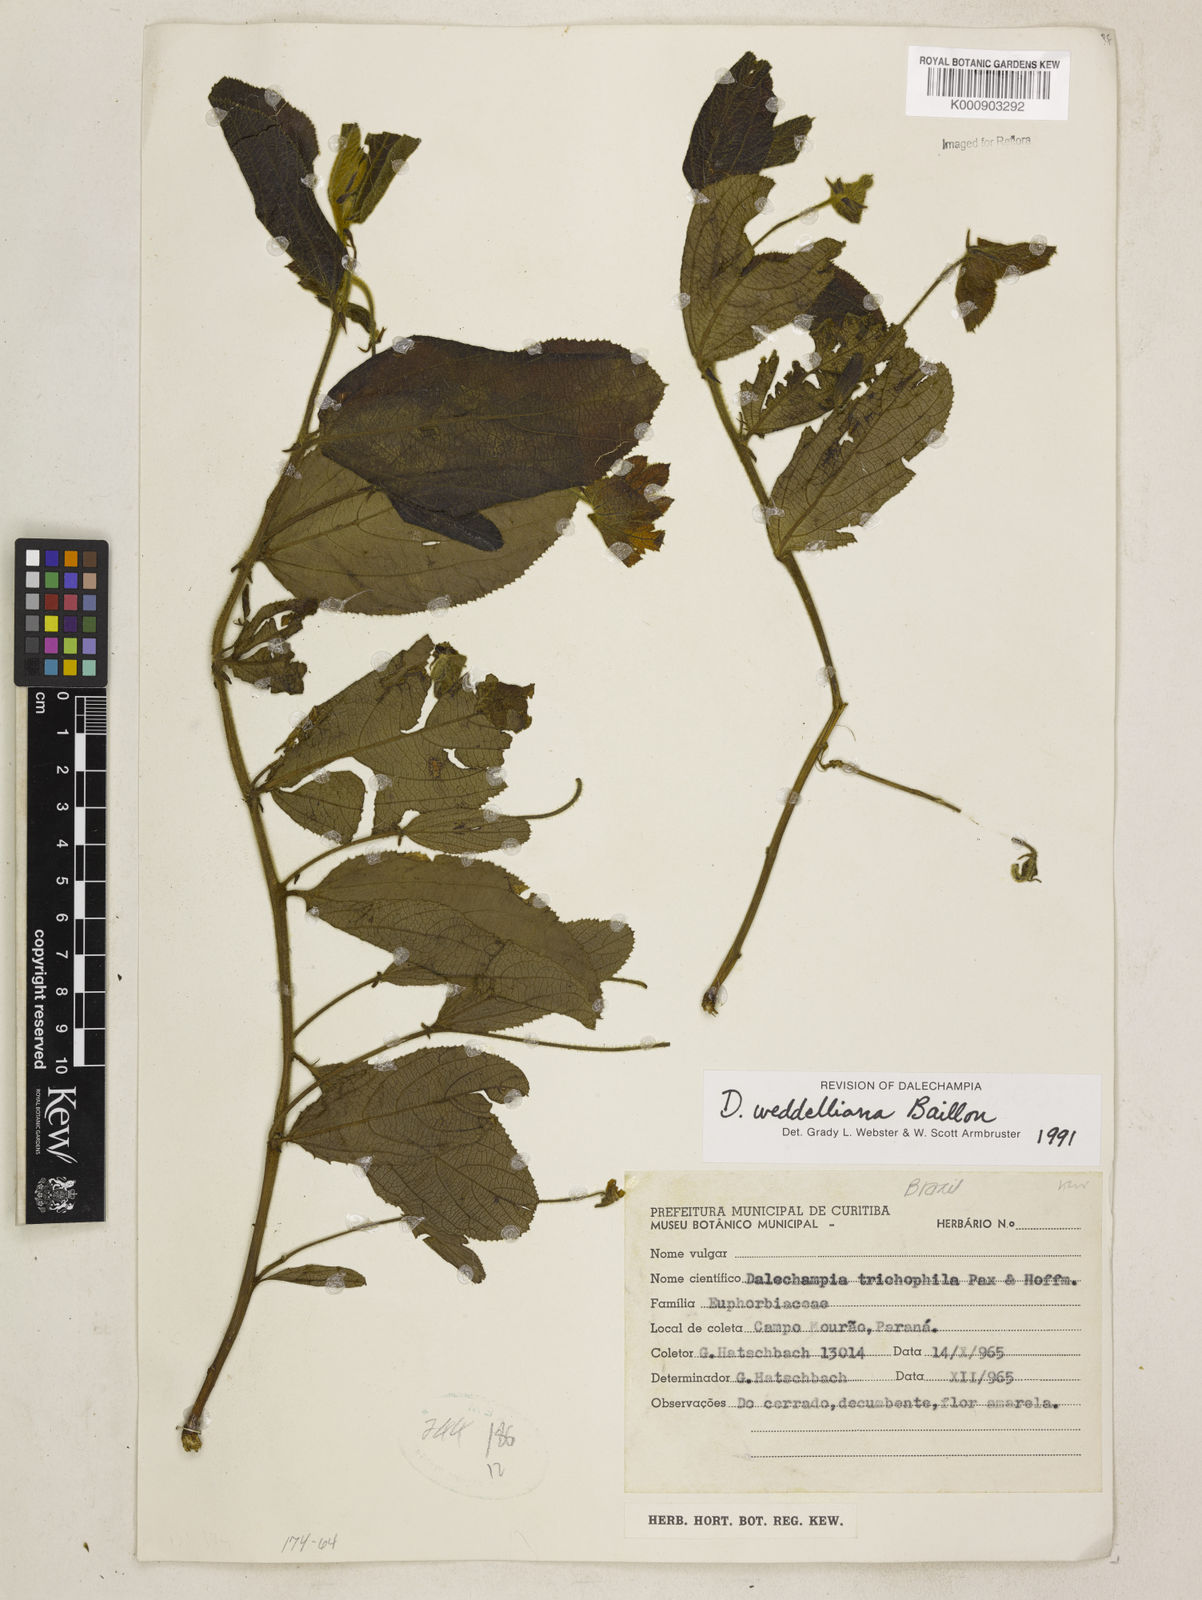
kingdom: Plantae
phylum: Tracheophyta
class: Magnoliopsida
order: Malpighiales
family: Euphorbiaceae
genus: Dalechampia
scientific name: Dalechampia weddelliana
